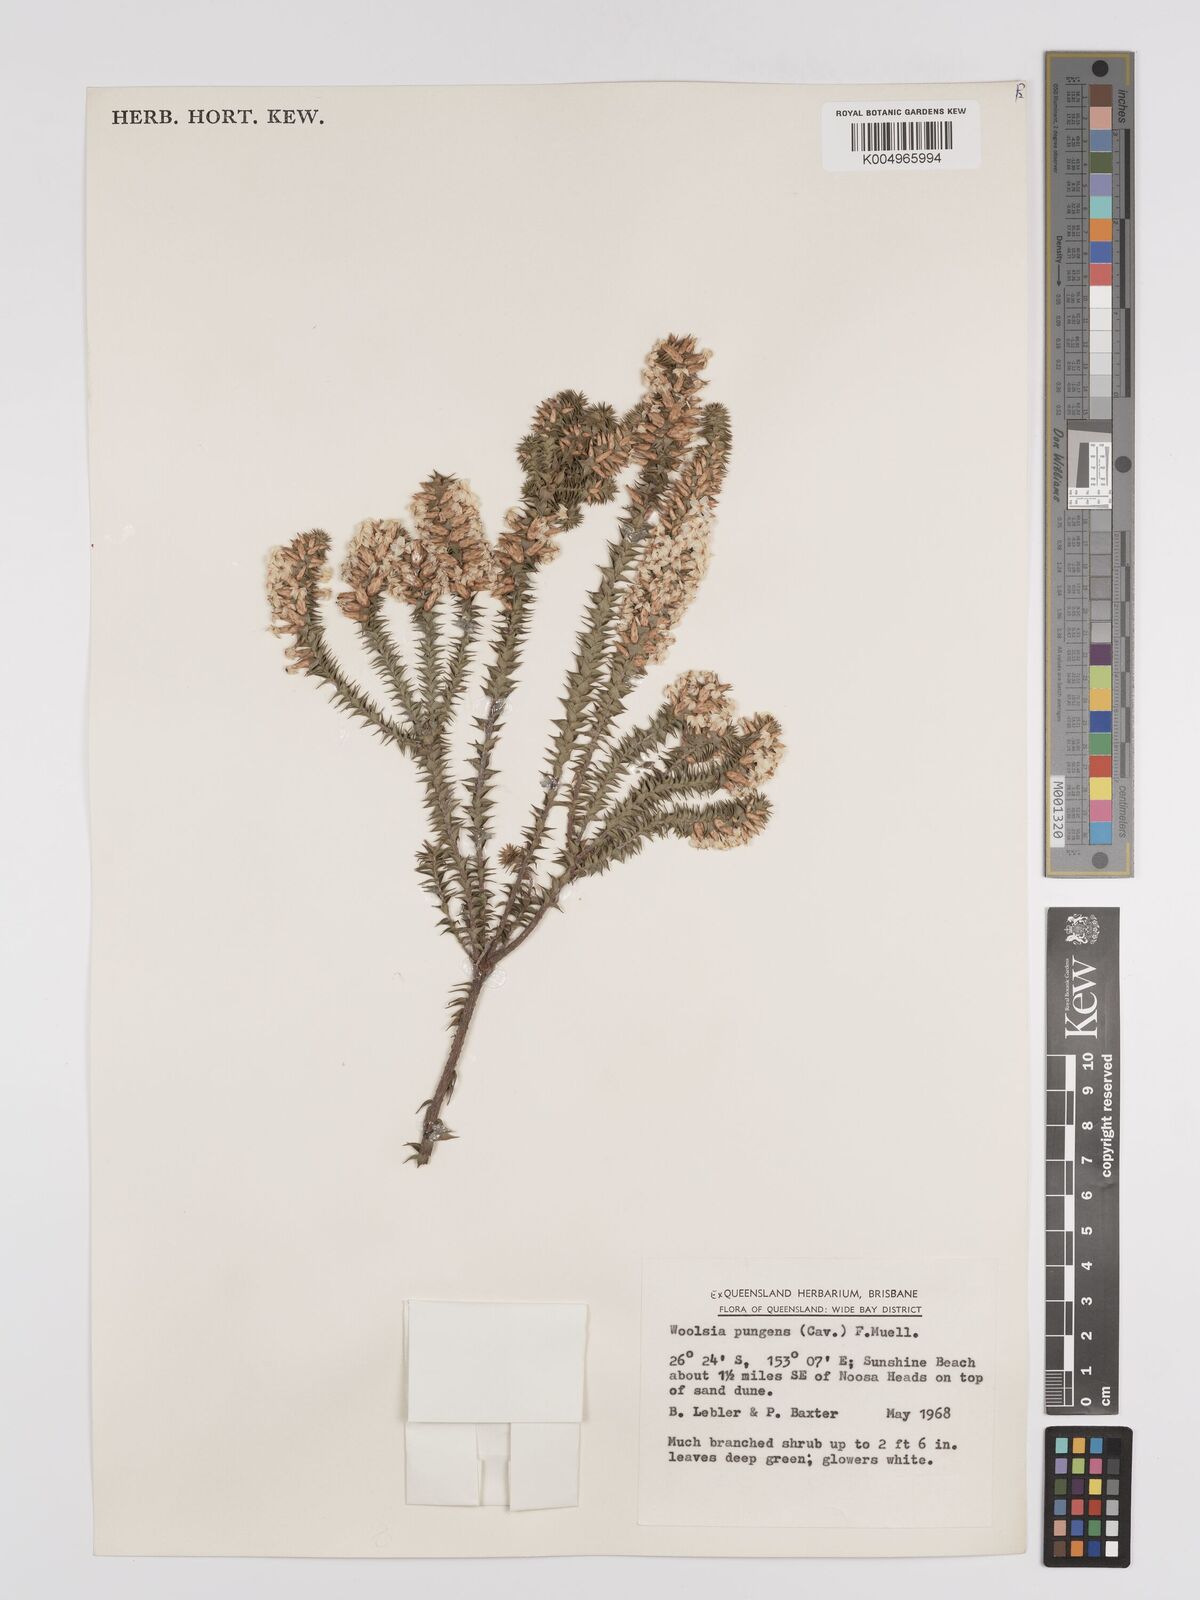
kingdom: Plantae
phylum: Tracheophyta
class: Magnoliopsida
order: Ericales
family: Ericaceae
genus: Woollsia
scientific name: Woollsia pungens
